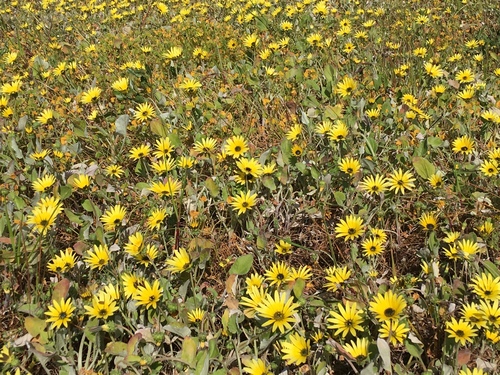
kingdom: Plantae
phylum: Tracheophyta
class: Magnoliopsida
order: Asterales
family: Asteraceae
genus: Arctotheca
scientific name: Arctotheca calendula
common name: Capeweed
